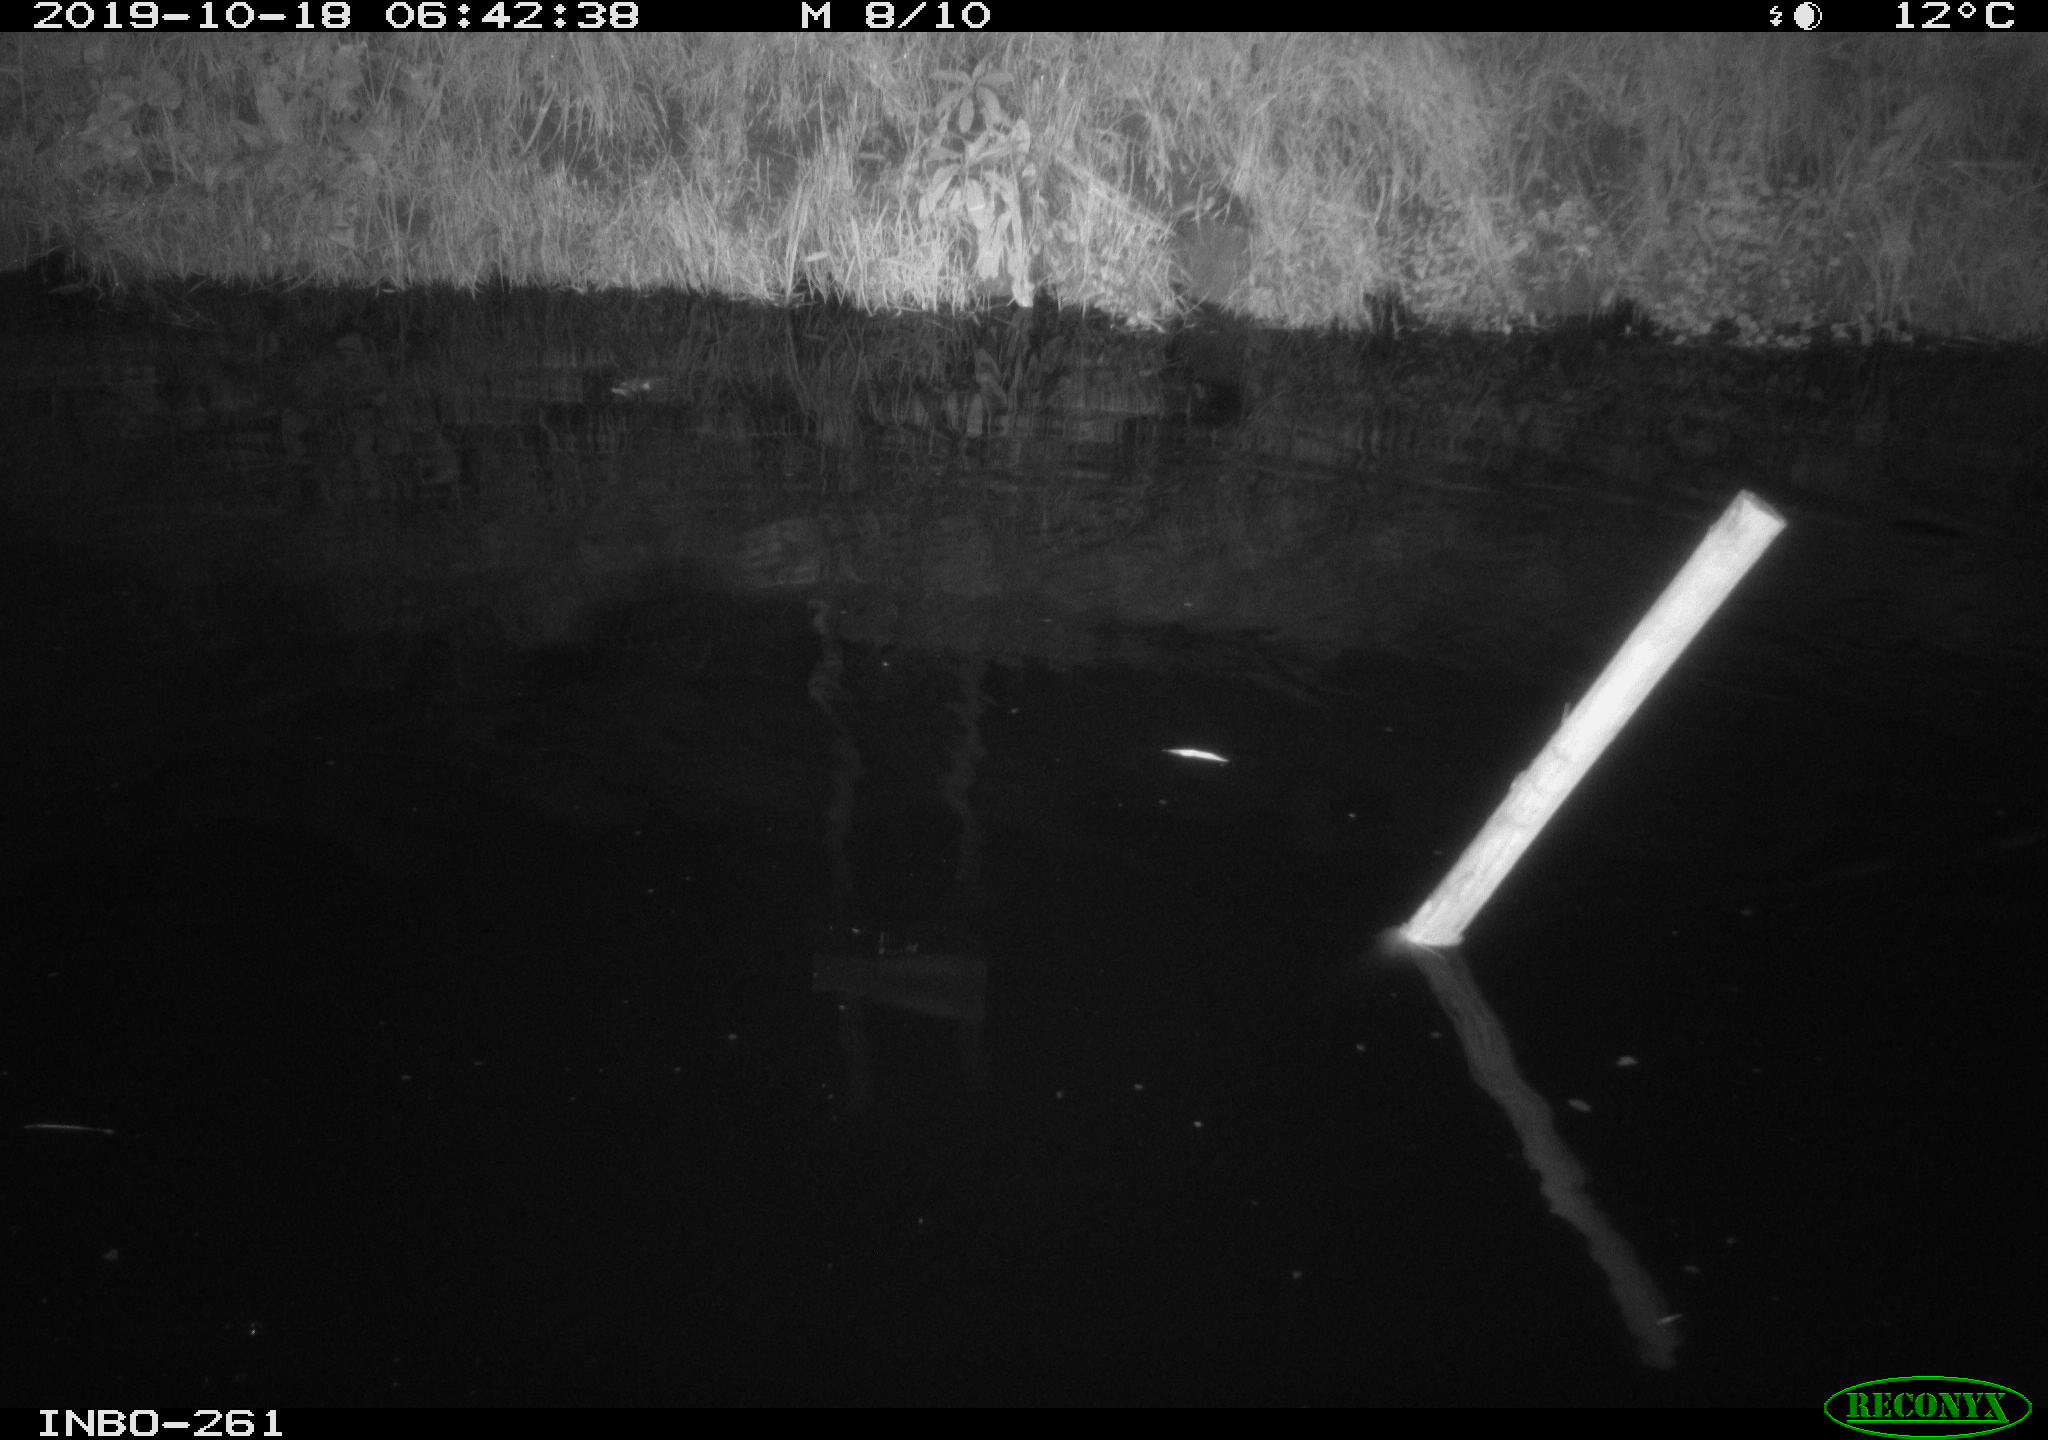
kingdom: Animalia
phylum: Chordata
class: Aves
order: Anseriformes
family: Anatidae
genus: Anas
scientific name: Anas platyrhynchos
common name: Mallard
